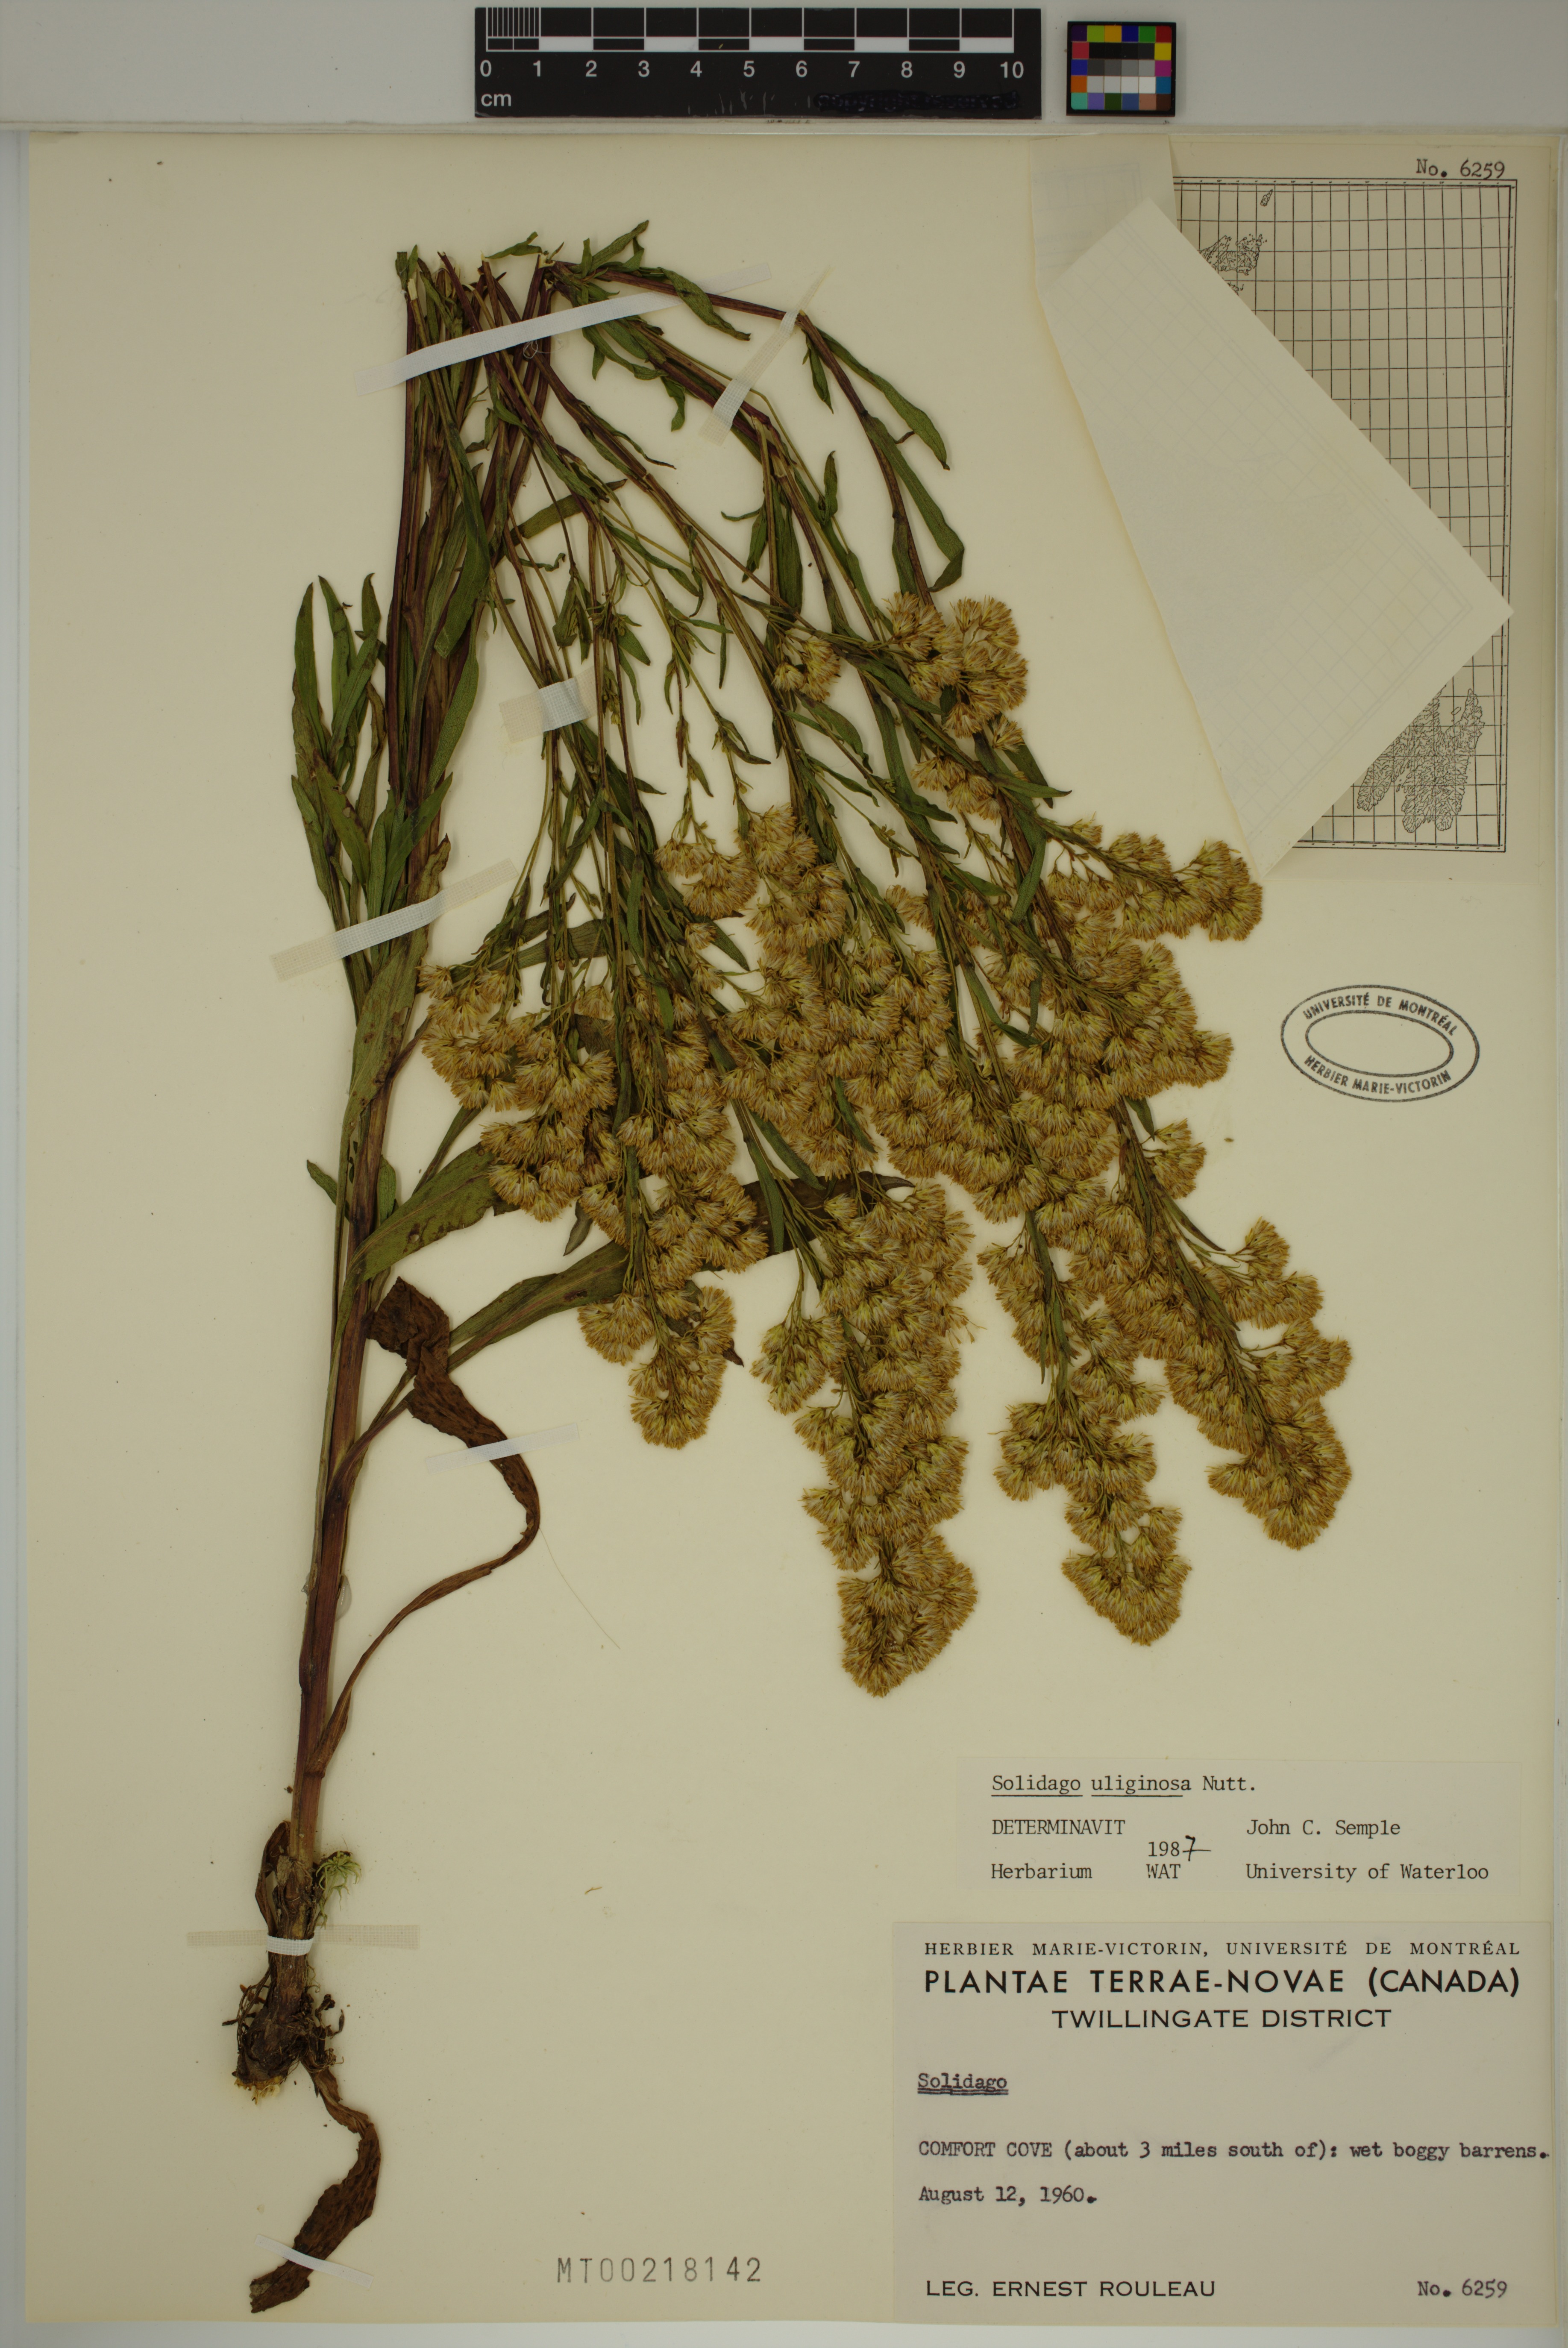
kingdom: Plantae
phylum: Tracheophyta
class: Magnoliopsida
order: Asterales
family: Asteraceae
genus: Solidago
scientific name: Solidago uliginosa
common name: Bog goldenrod
